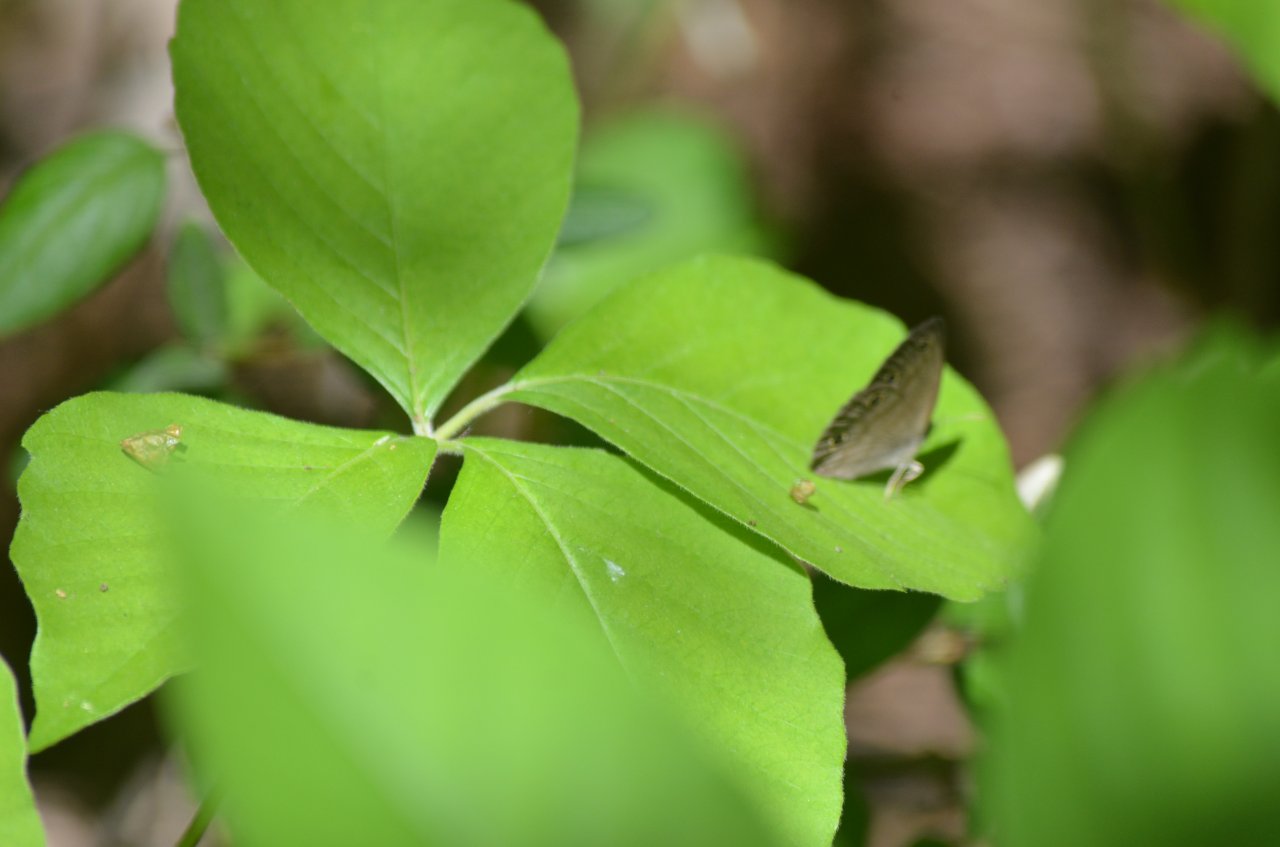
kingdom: Animalia
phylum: Arthropoda
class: Insecta
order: Lepidoptera
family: Nymphalidae
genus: Euptychia
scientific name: Euptychia cymela
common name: Little Wood Satyr
